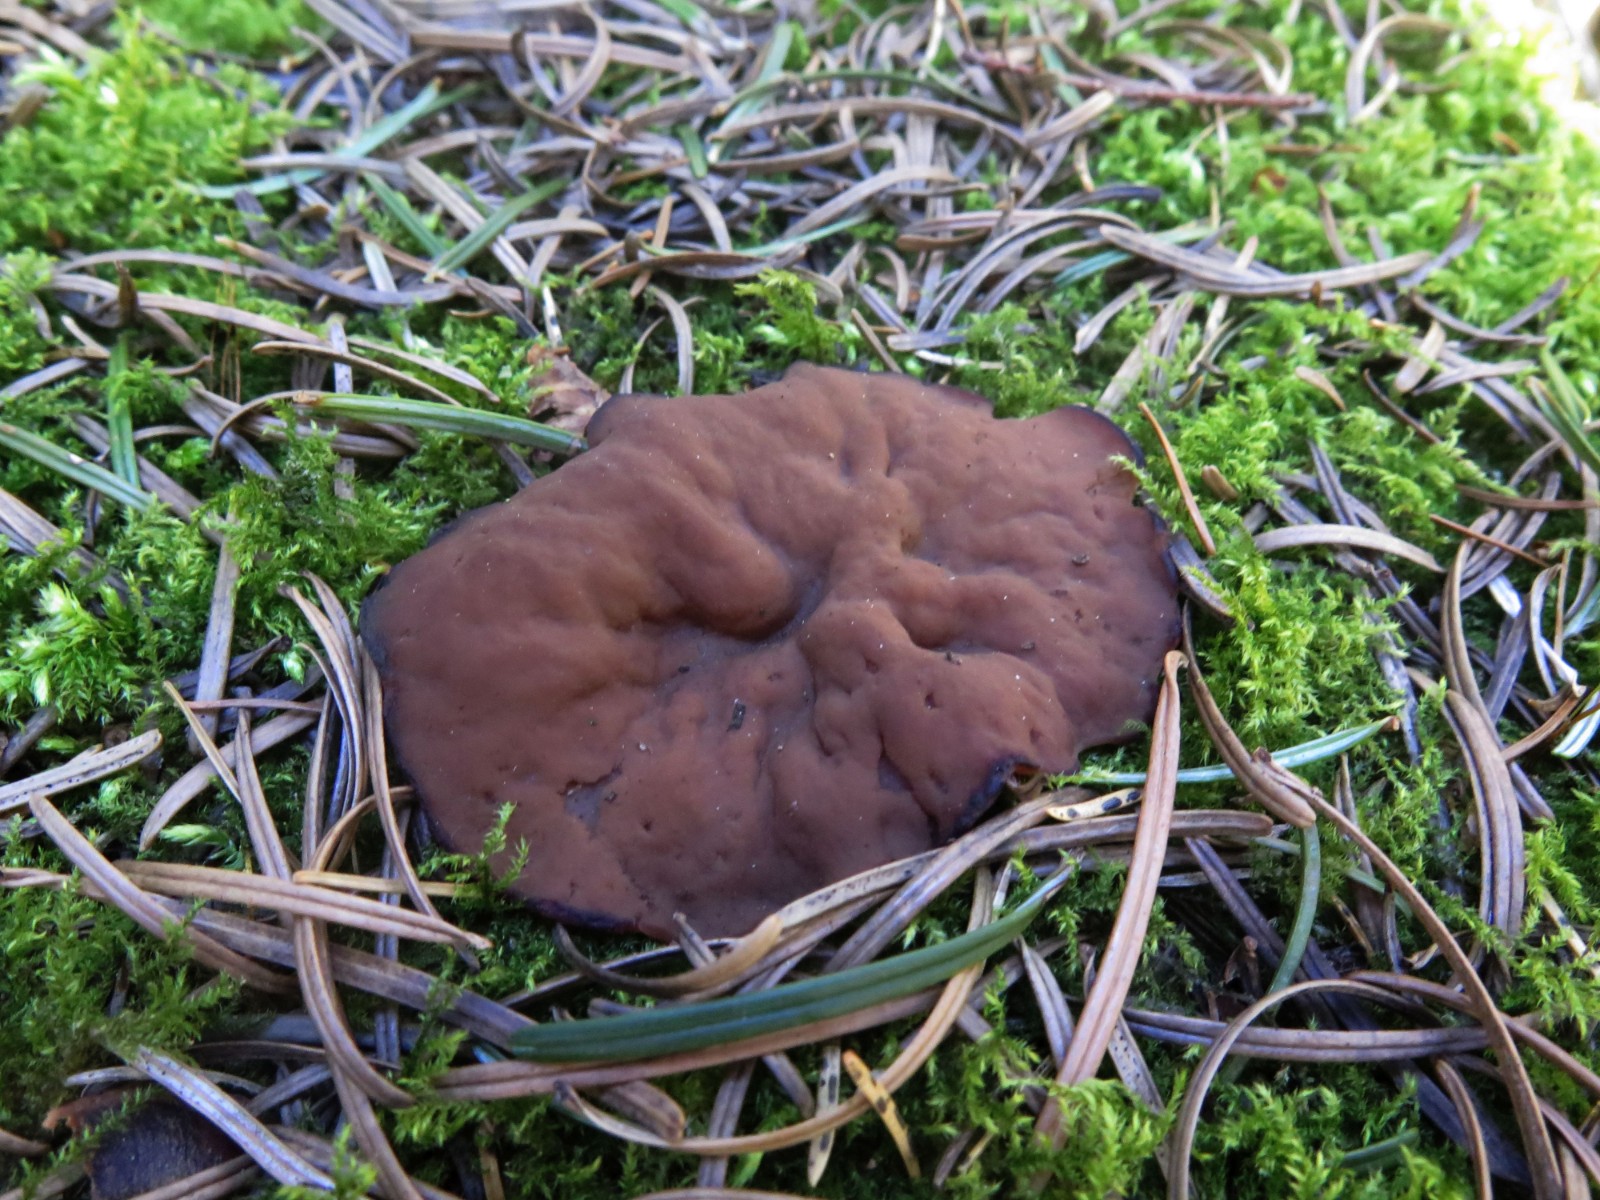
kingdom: Fungi
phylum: Ascomycota
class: Pezizomycetes
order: Pezizales
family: Discinaceae
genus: Discina
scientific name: Discina ancilis
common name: udbredt stenmorkel
